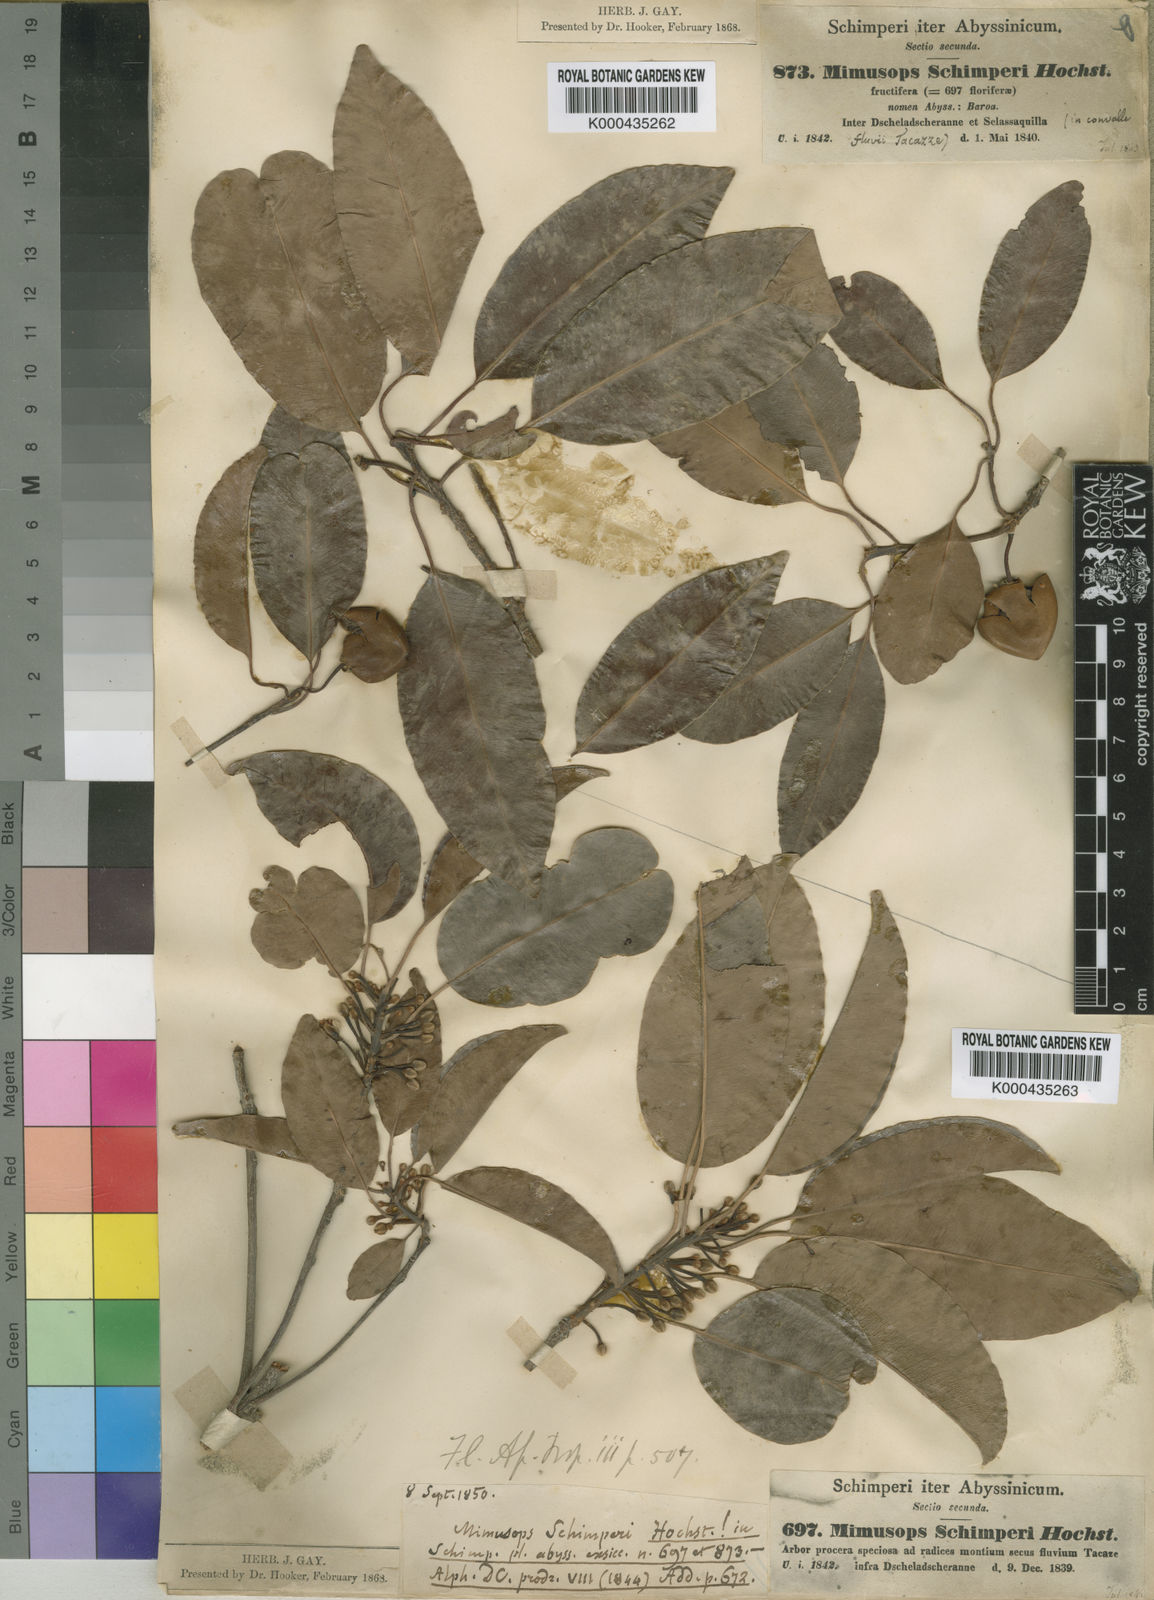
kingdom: Plantae
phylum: Tracheophyta
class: Magnoliopsida
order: Ericales
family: Sapotaceae
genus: Mimusops
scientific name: Mimusops laurifolia
